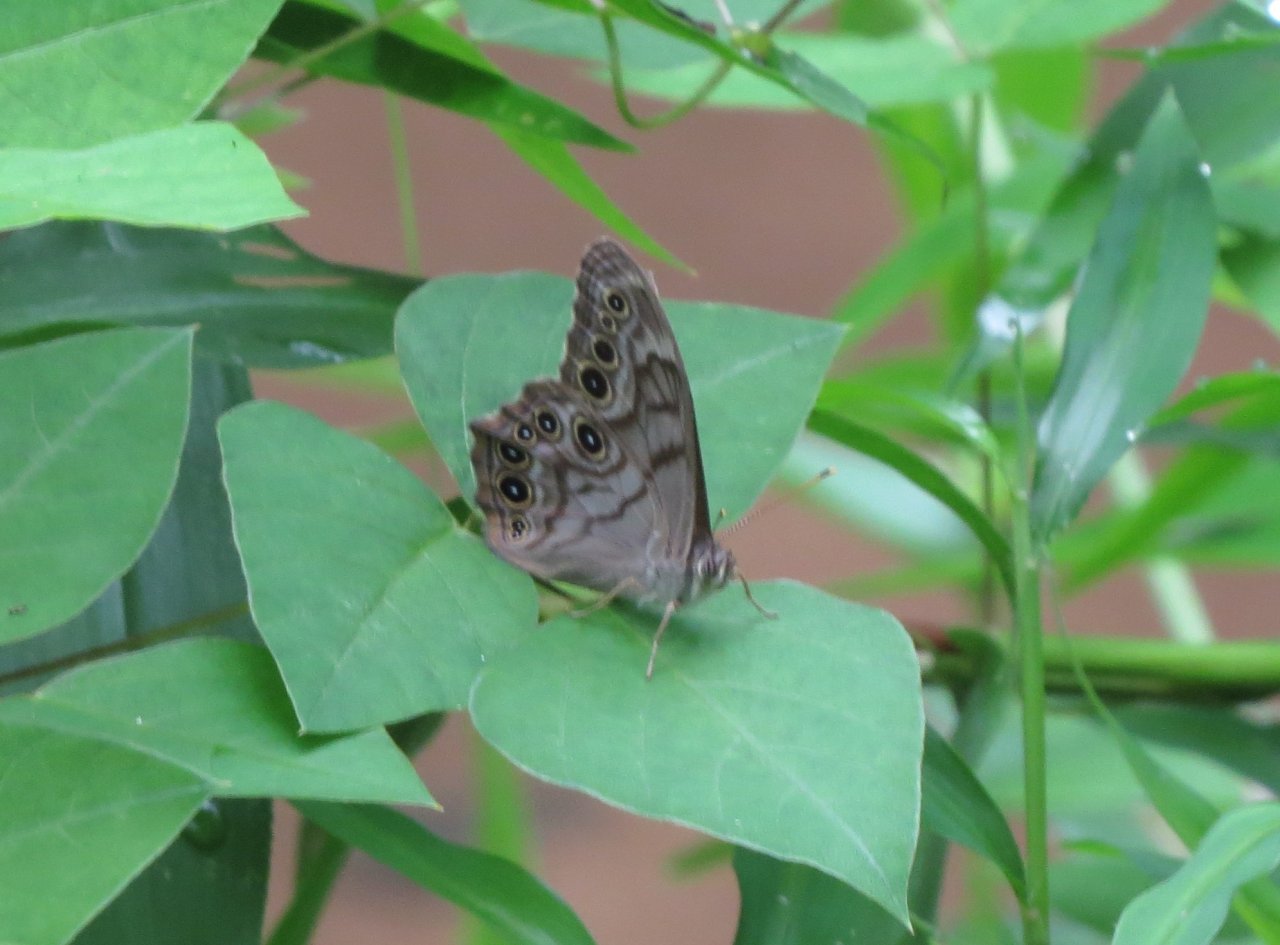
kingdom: Animalia
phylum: Arthropoda
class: Insecta
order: Lepidoptera
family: Nymphalidae
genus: Lethe
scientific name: Lethe creola
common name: Creole Pearly-Eye
